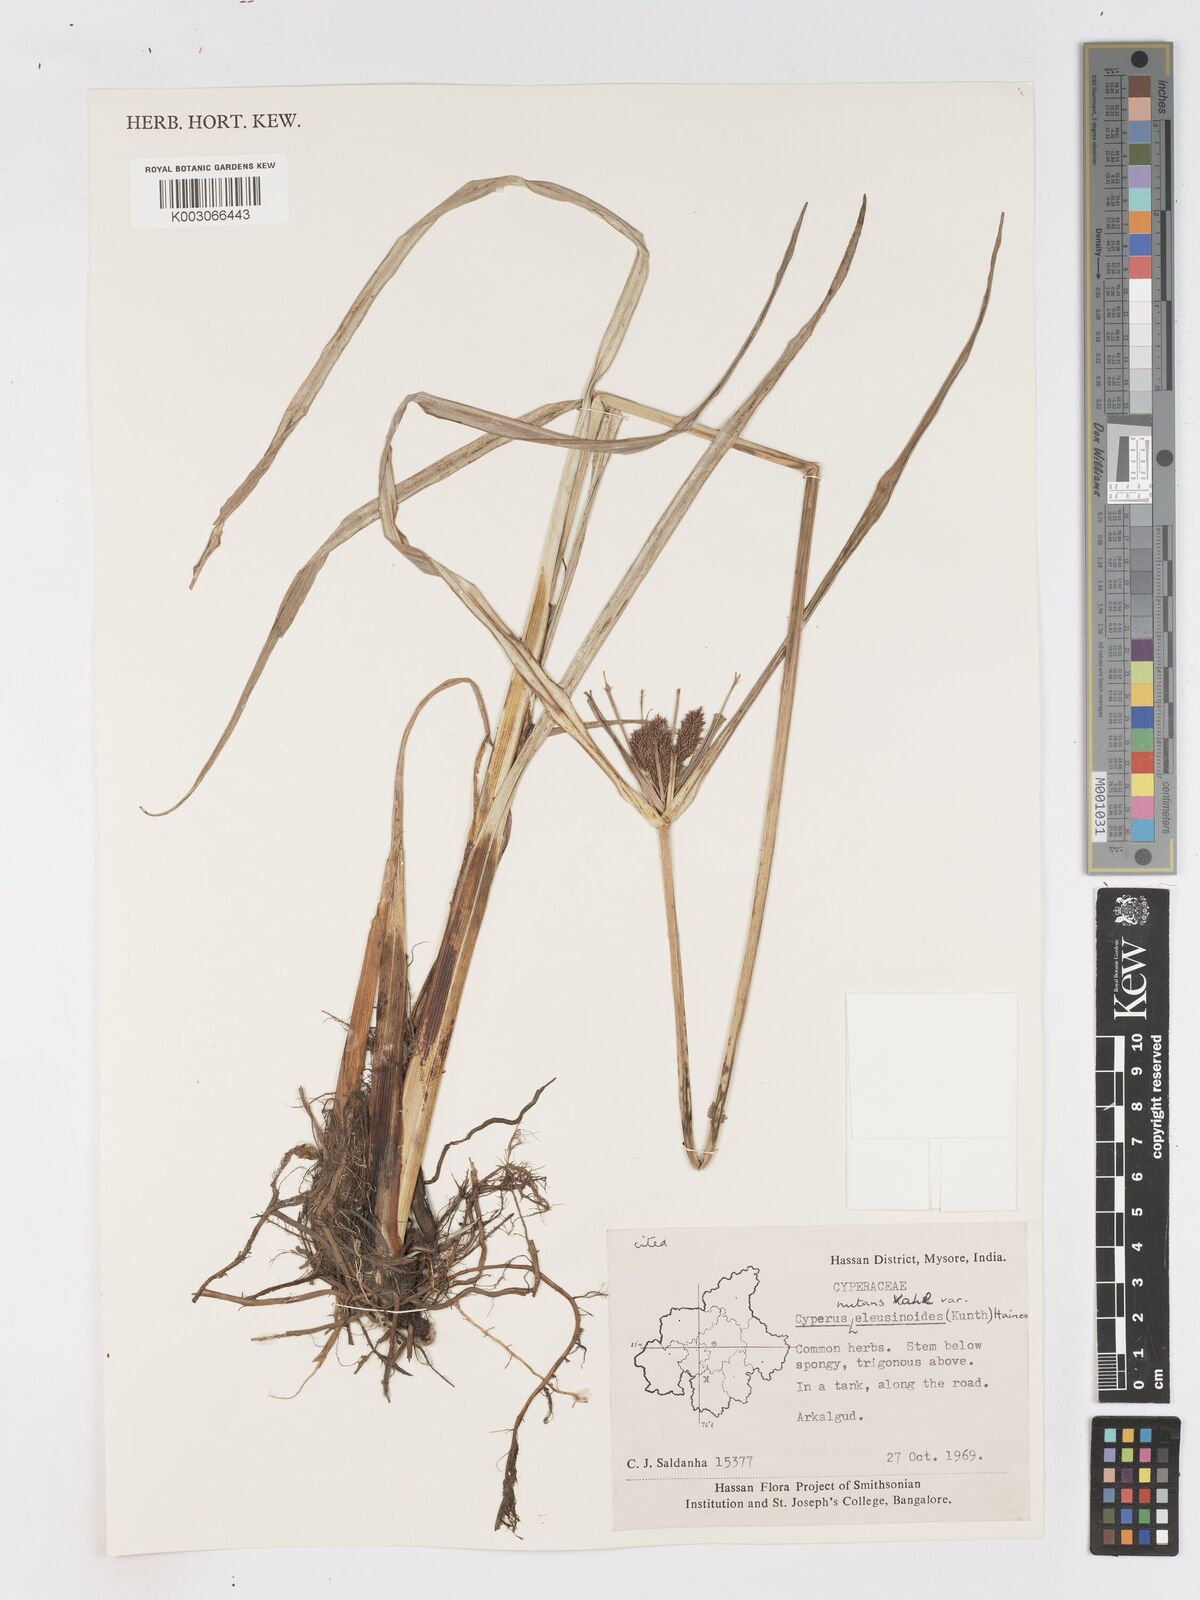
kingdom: Plantae
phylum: Tracheophyta
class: Liliopsida
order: Poales
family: Cyperaceae
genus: Cyperus
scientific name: Cyperus nutans
